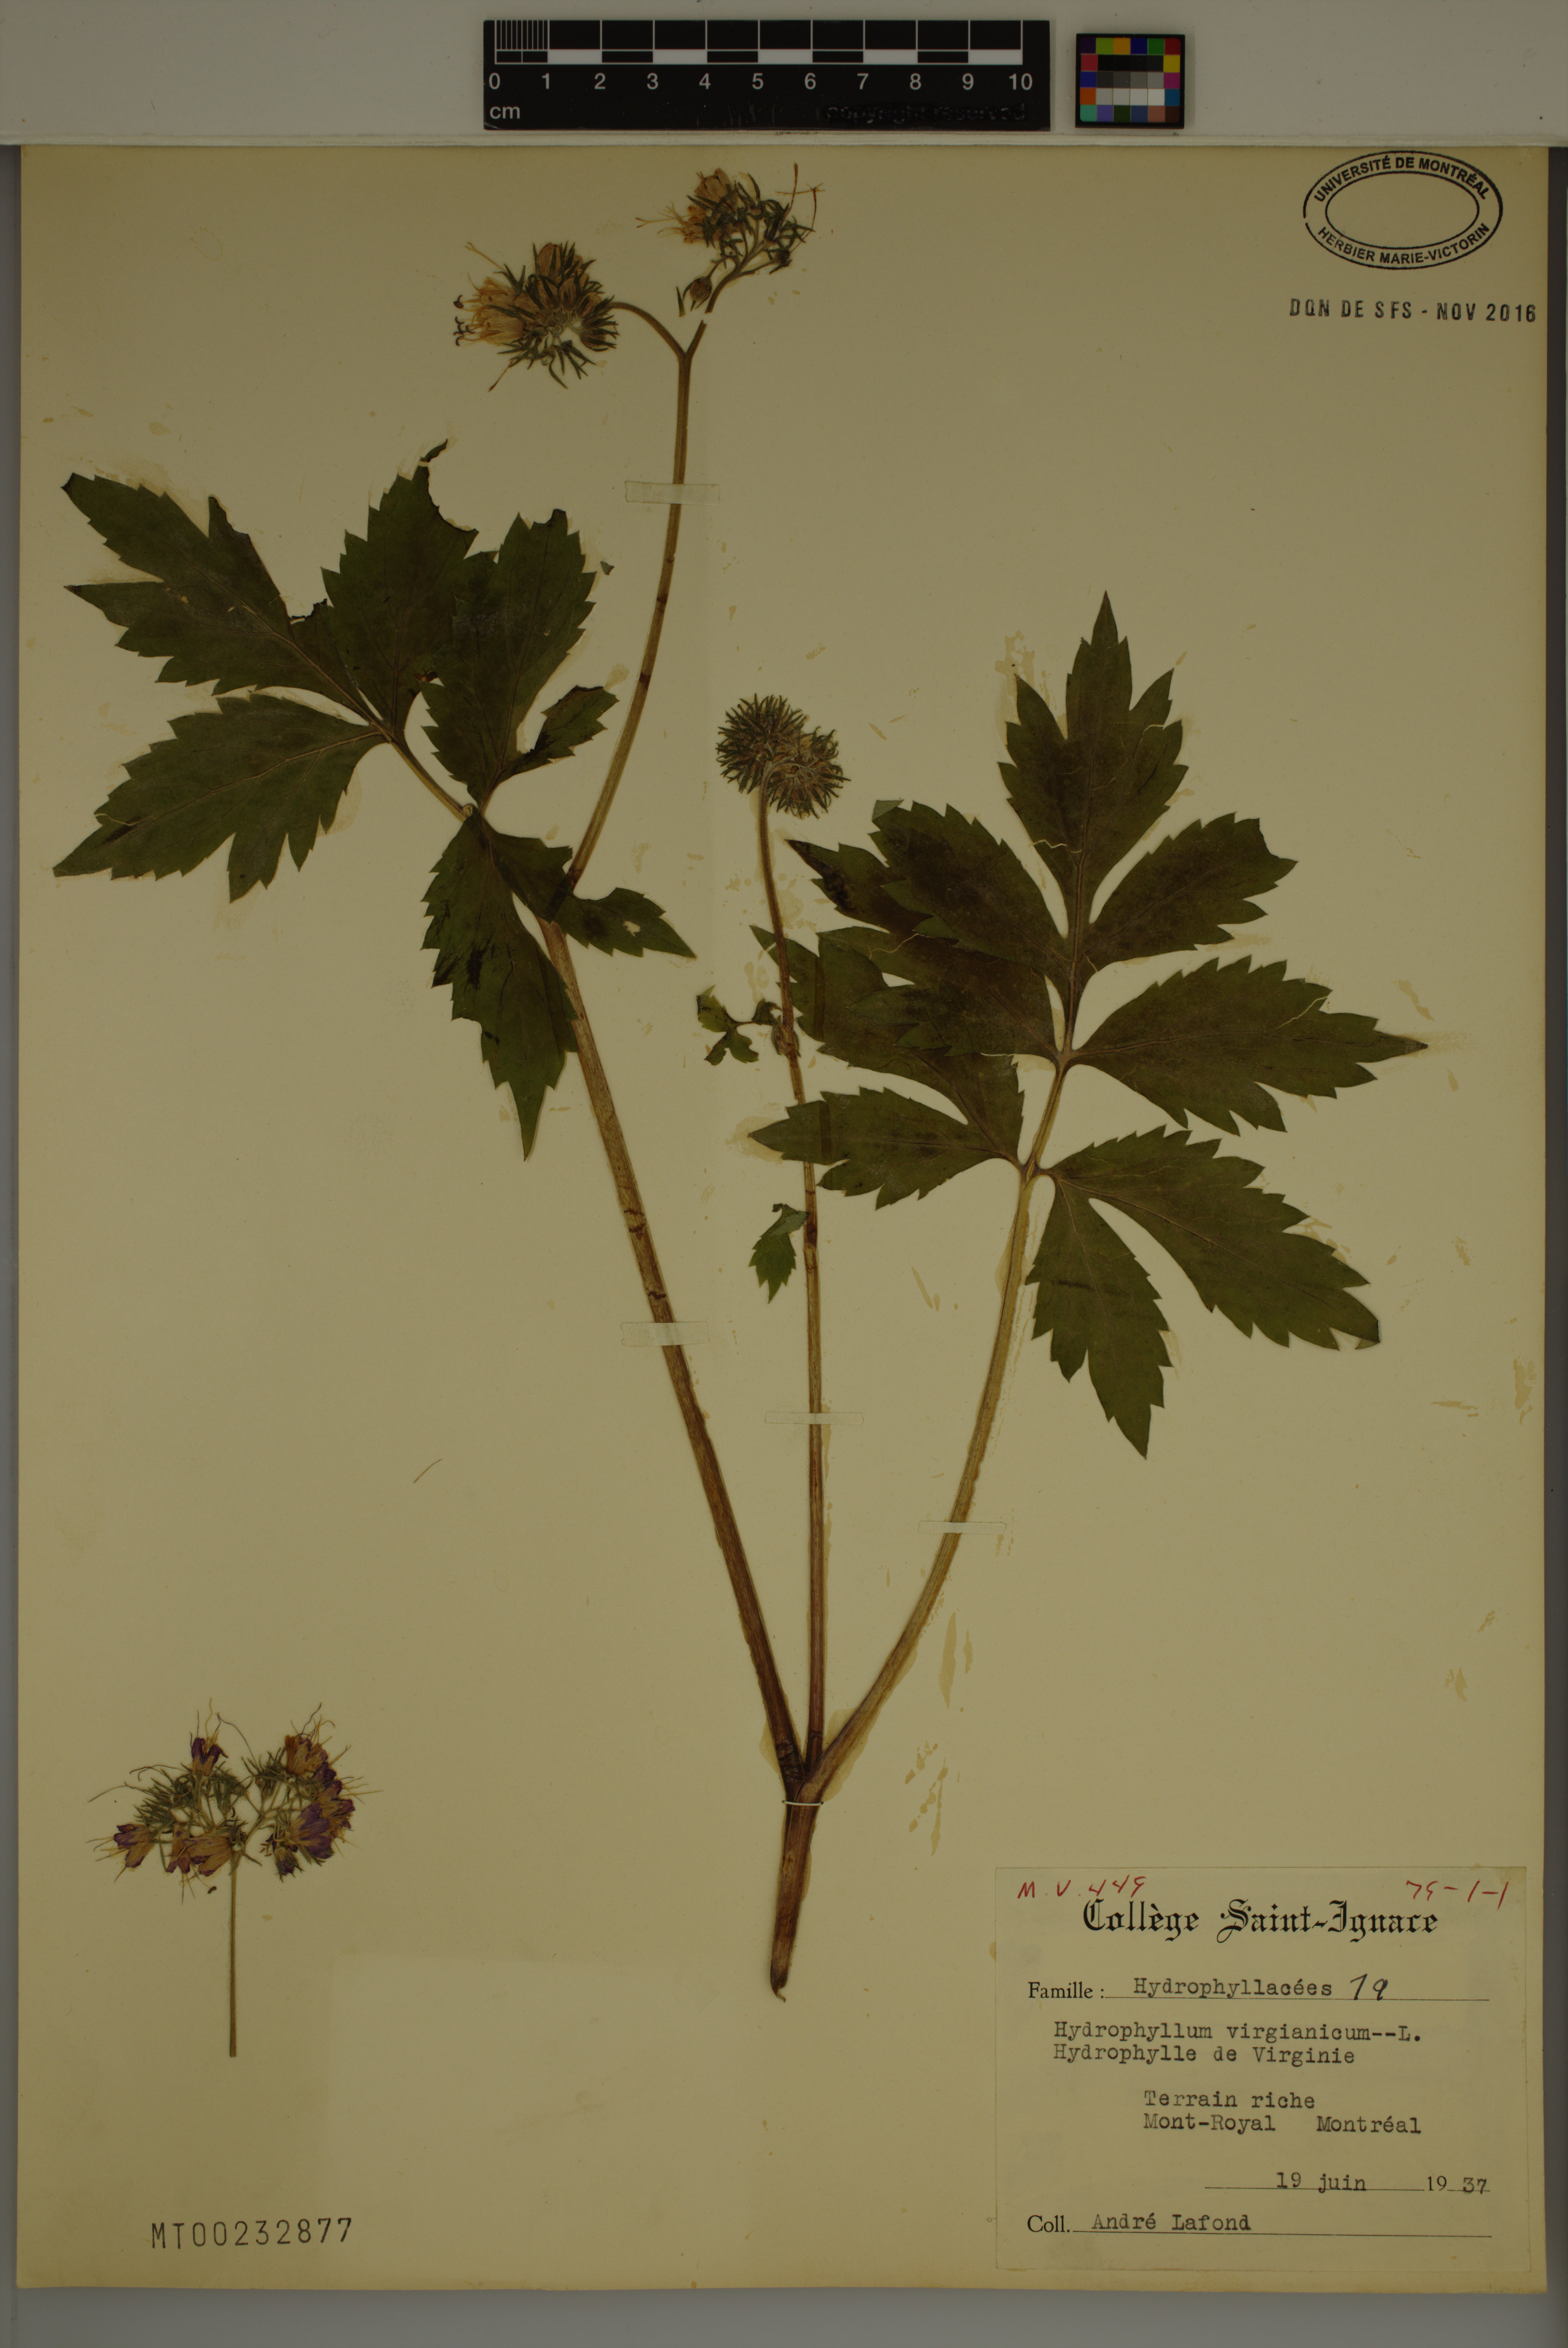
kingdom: Plantae
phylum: Tracheophyta
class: Magnoliopsida
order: Boraginales
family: Hydrophyllaceae
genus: Hydrophyllum
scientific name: Hydrophyllum virginianum
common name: Virginia waterleaf
